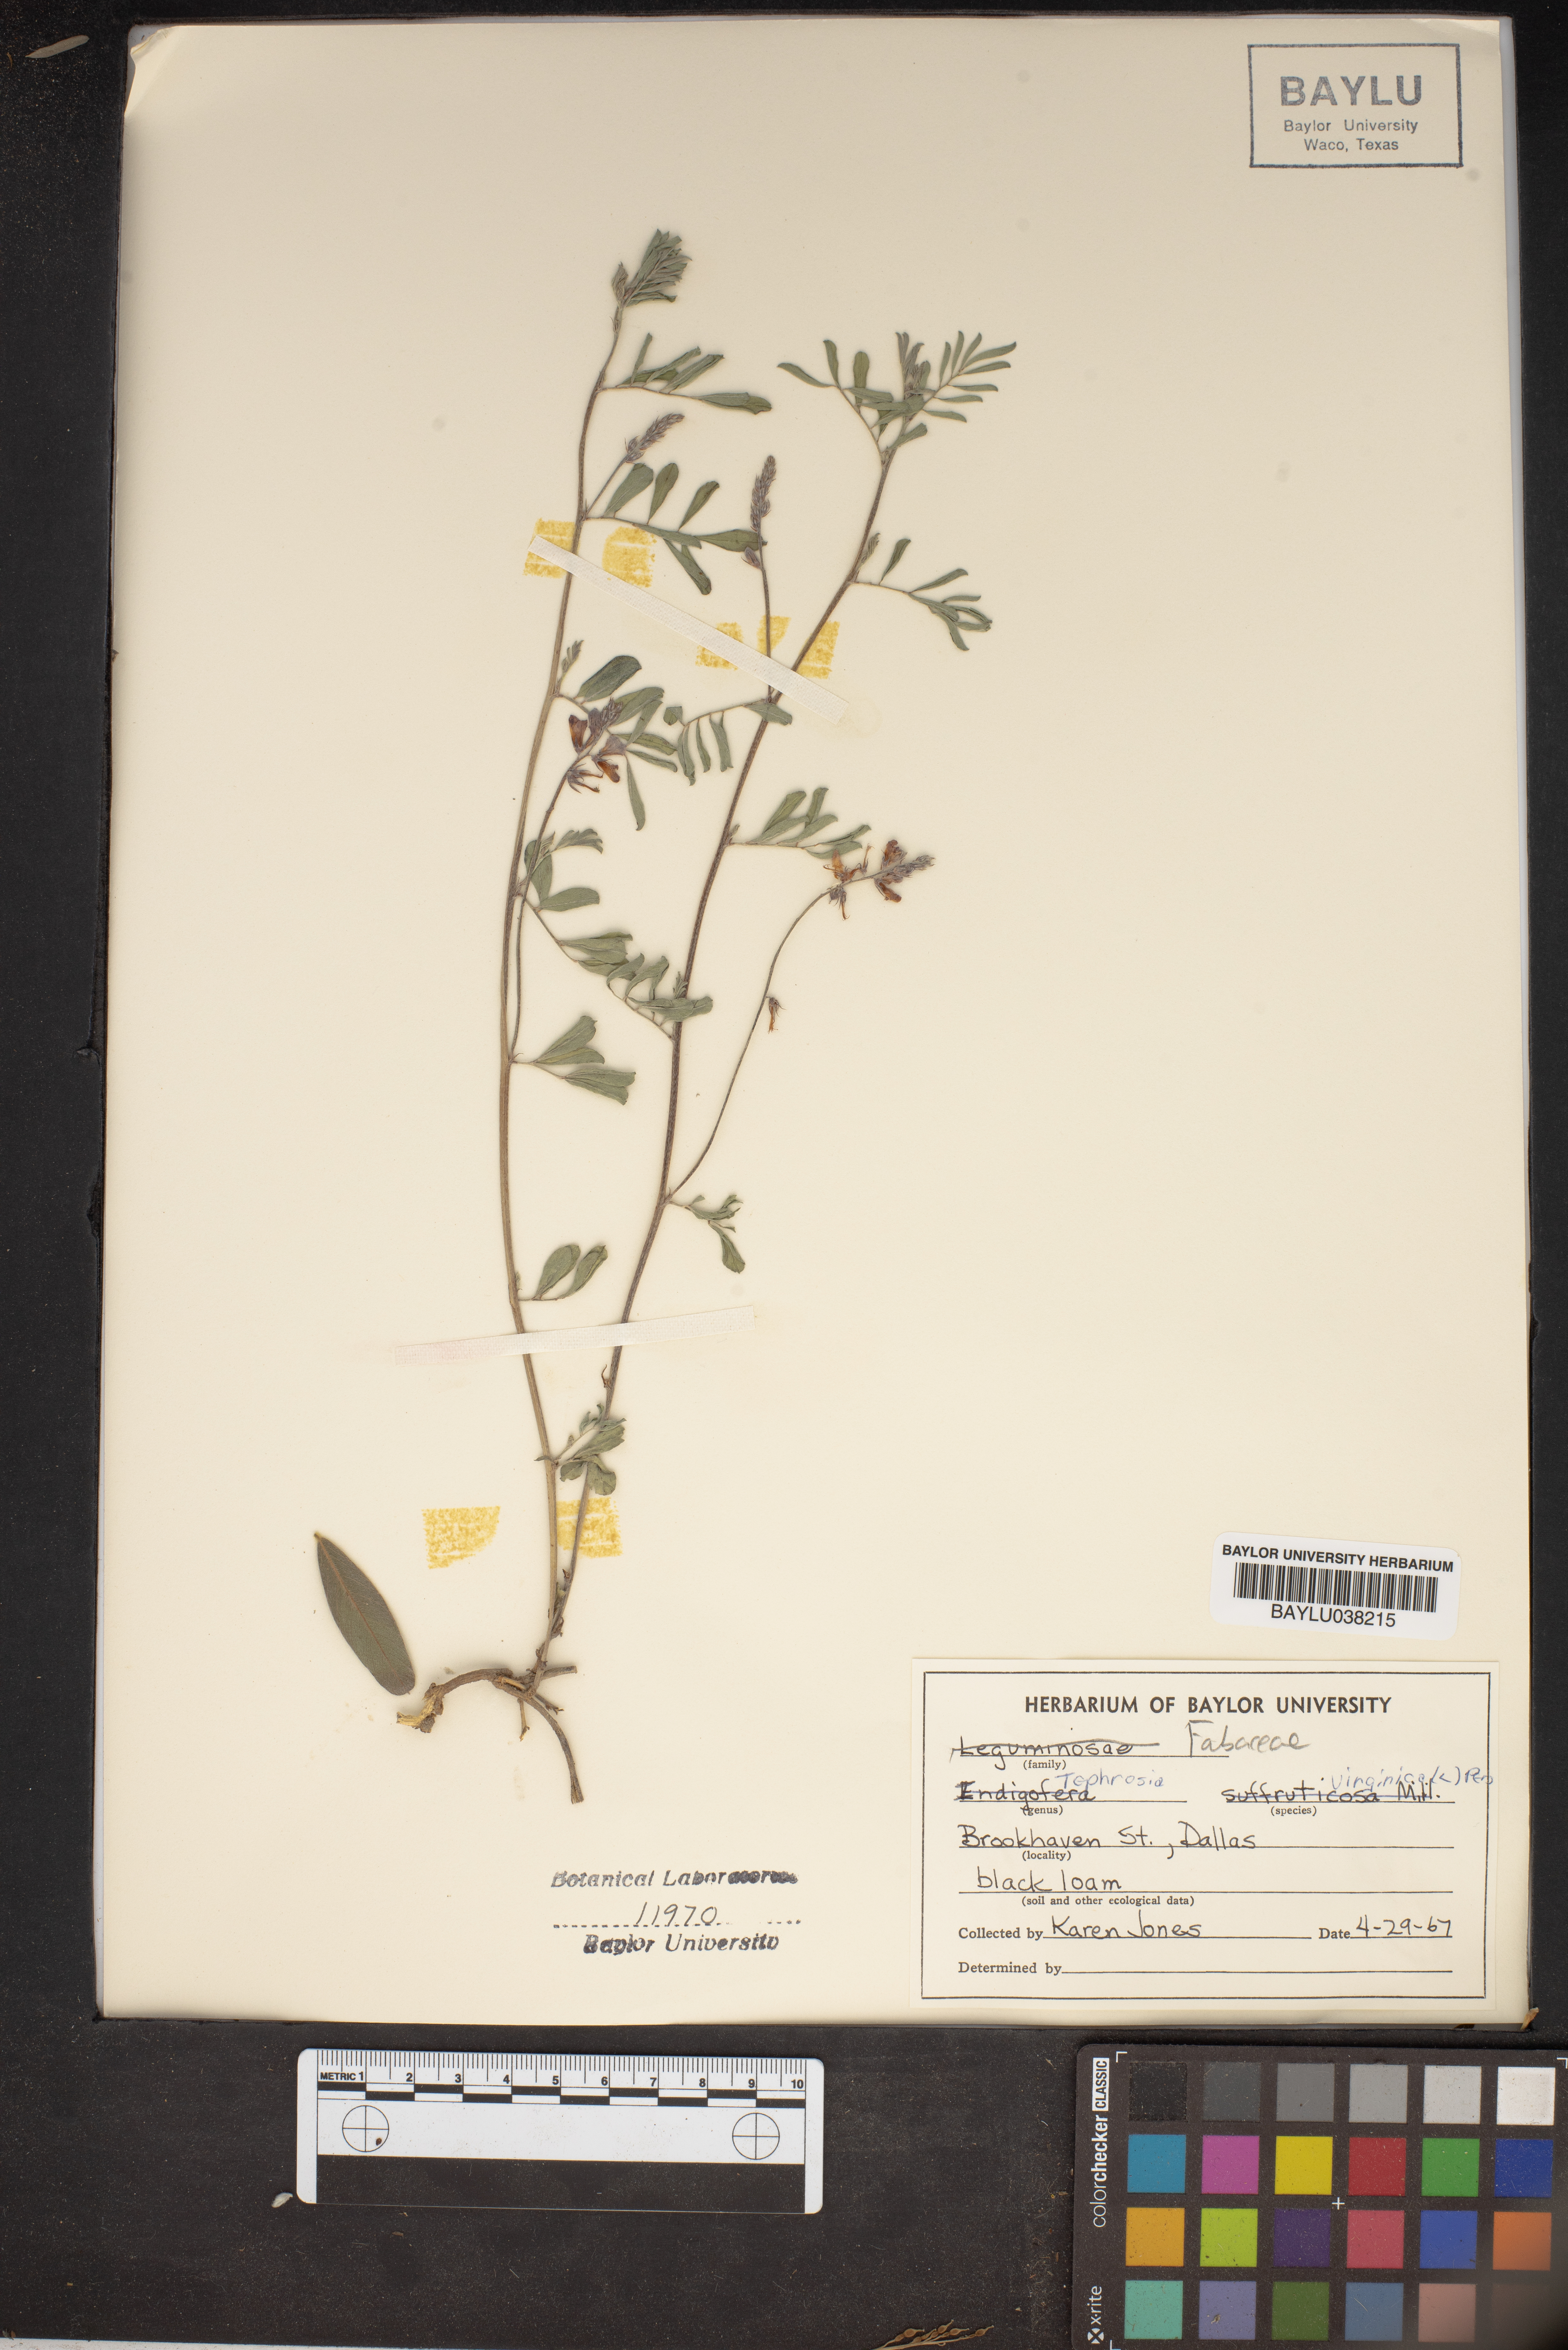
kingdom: Plantae
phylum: Tracheophyta
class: Magnoliopsida
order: Fabales
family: Fabaceae
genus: Tephrosia
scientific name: Tephrosia virginiana
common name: Rabbit-pea
